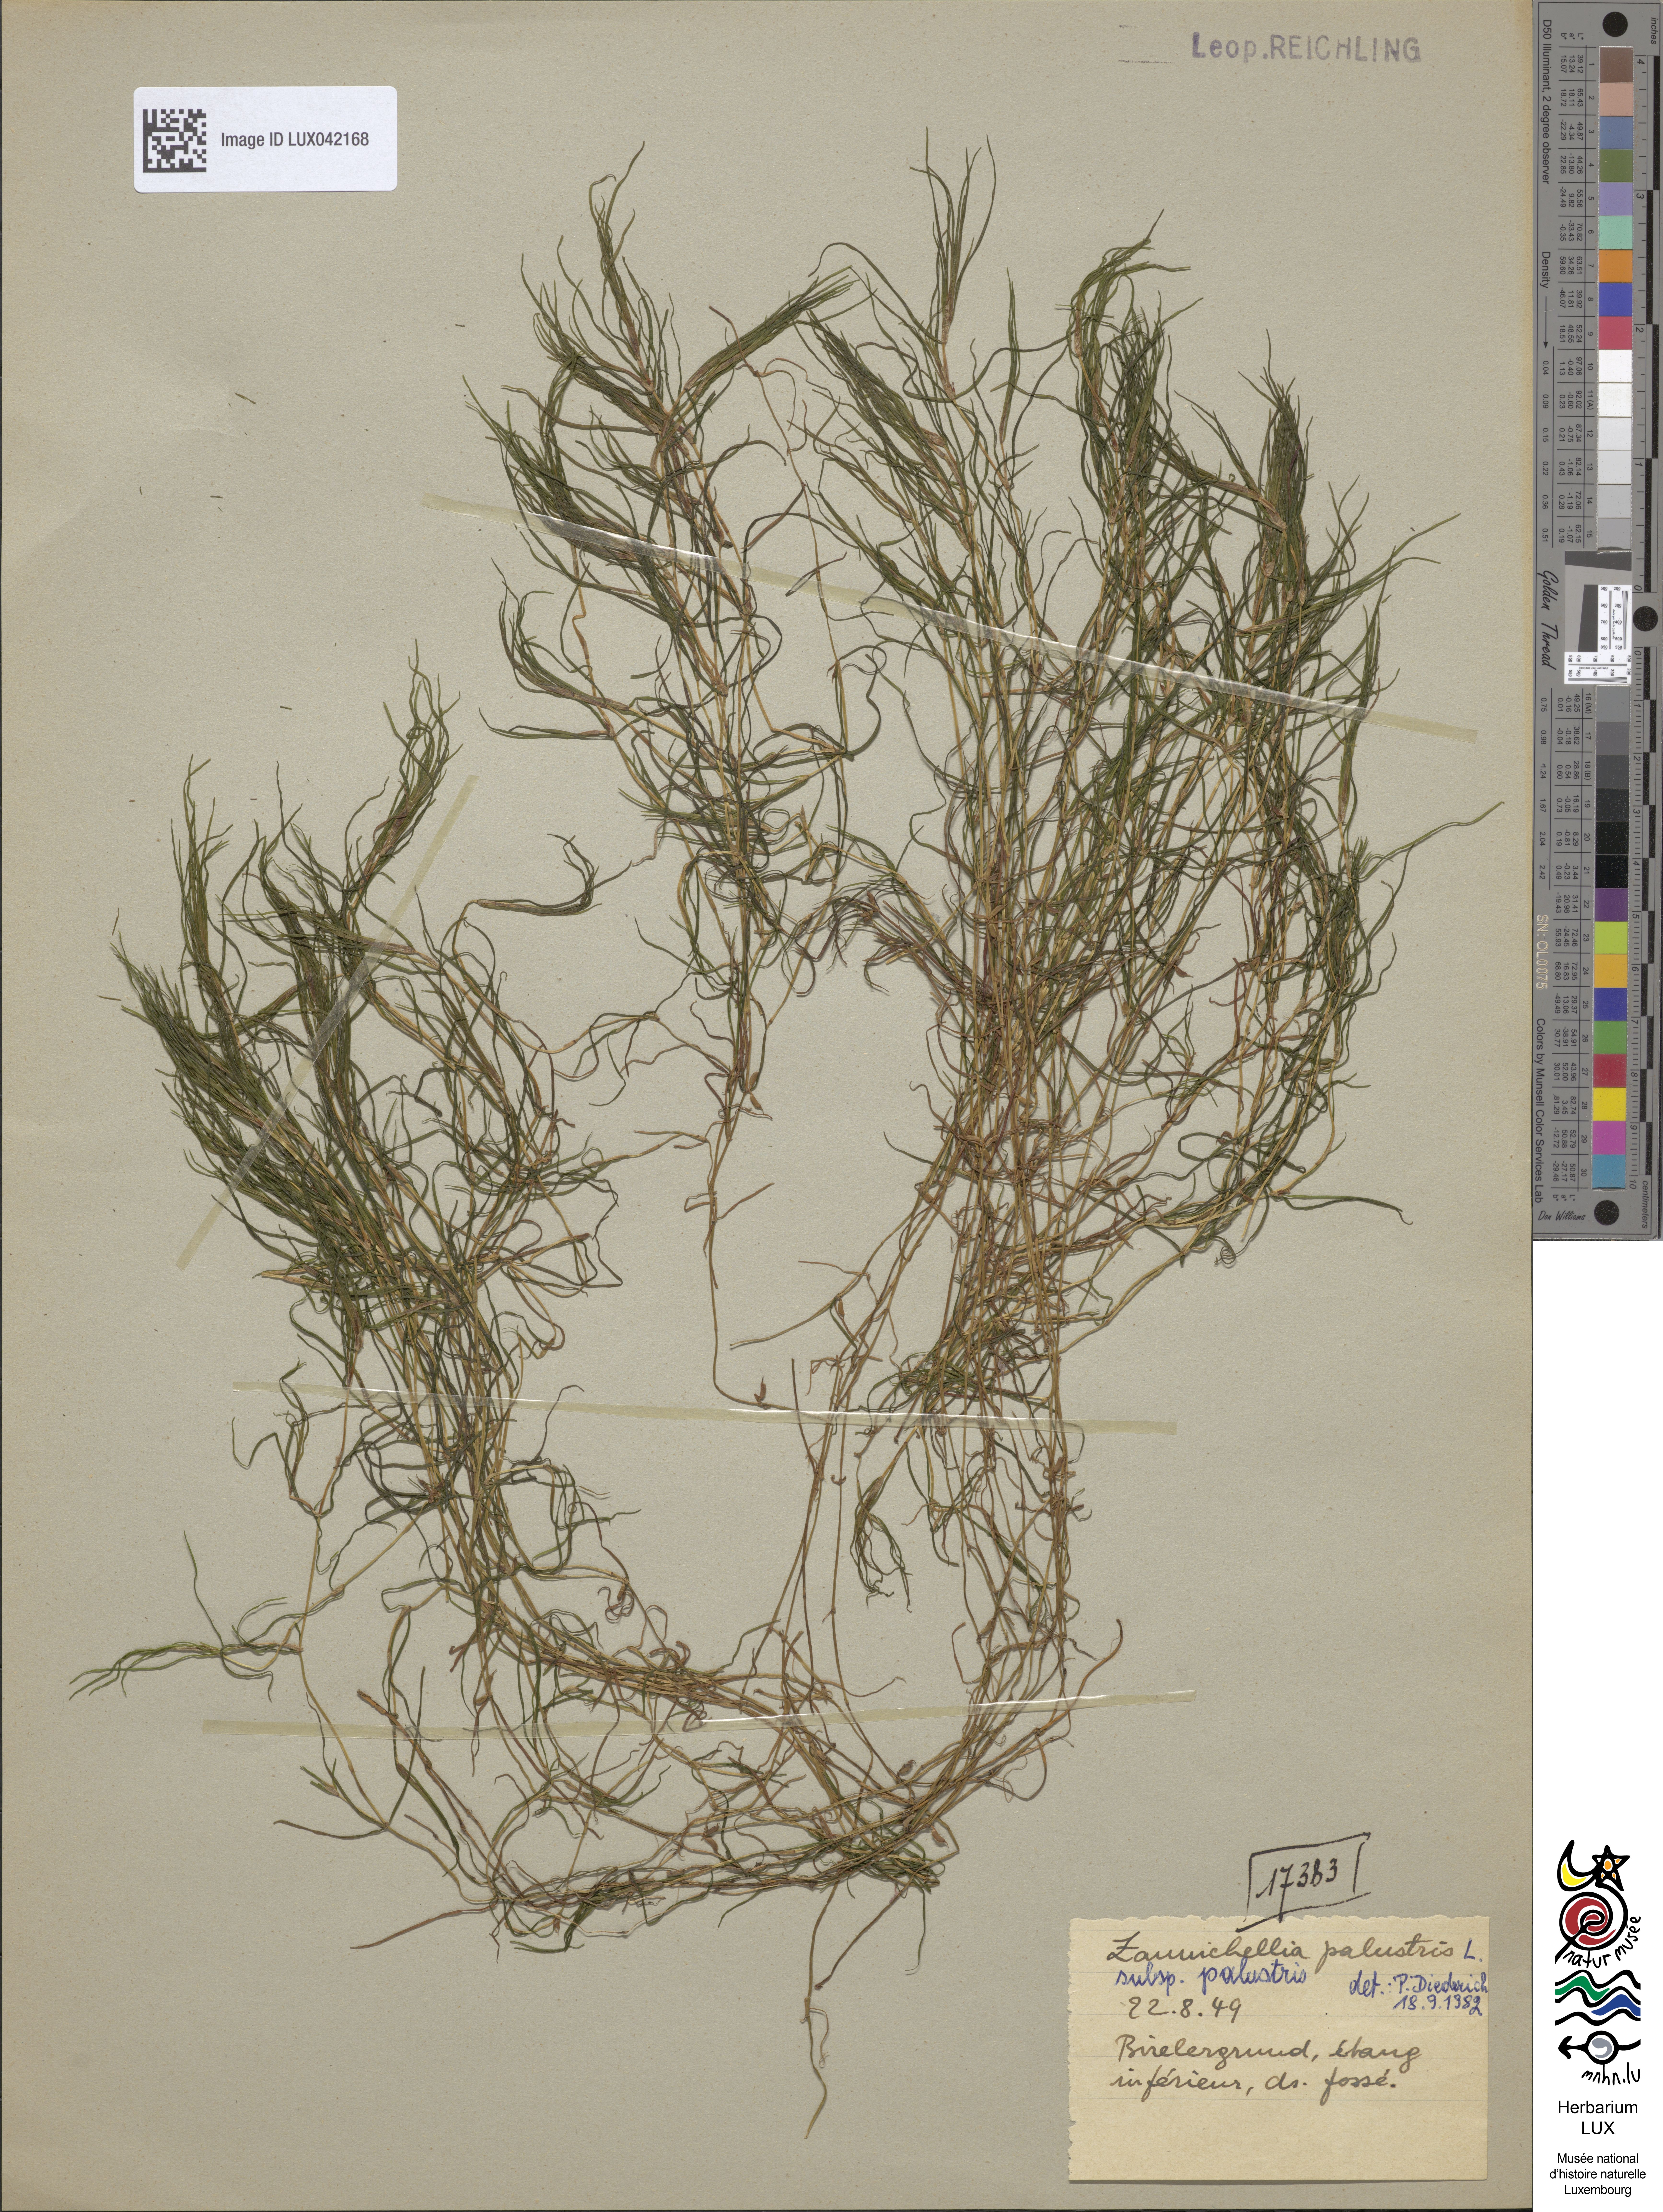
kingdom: Plantae
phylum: Tracheophyta
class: Liliopsida
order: Alismatales
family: Potamogetonaceae
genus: Zannichellia
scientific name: Zannichellia palustris
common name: Horned pondweed
